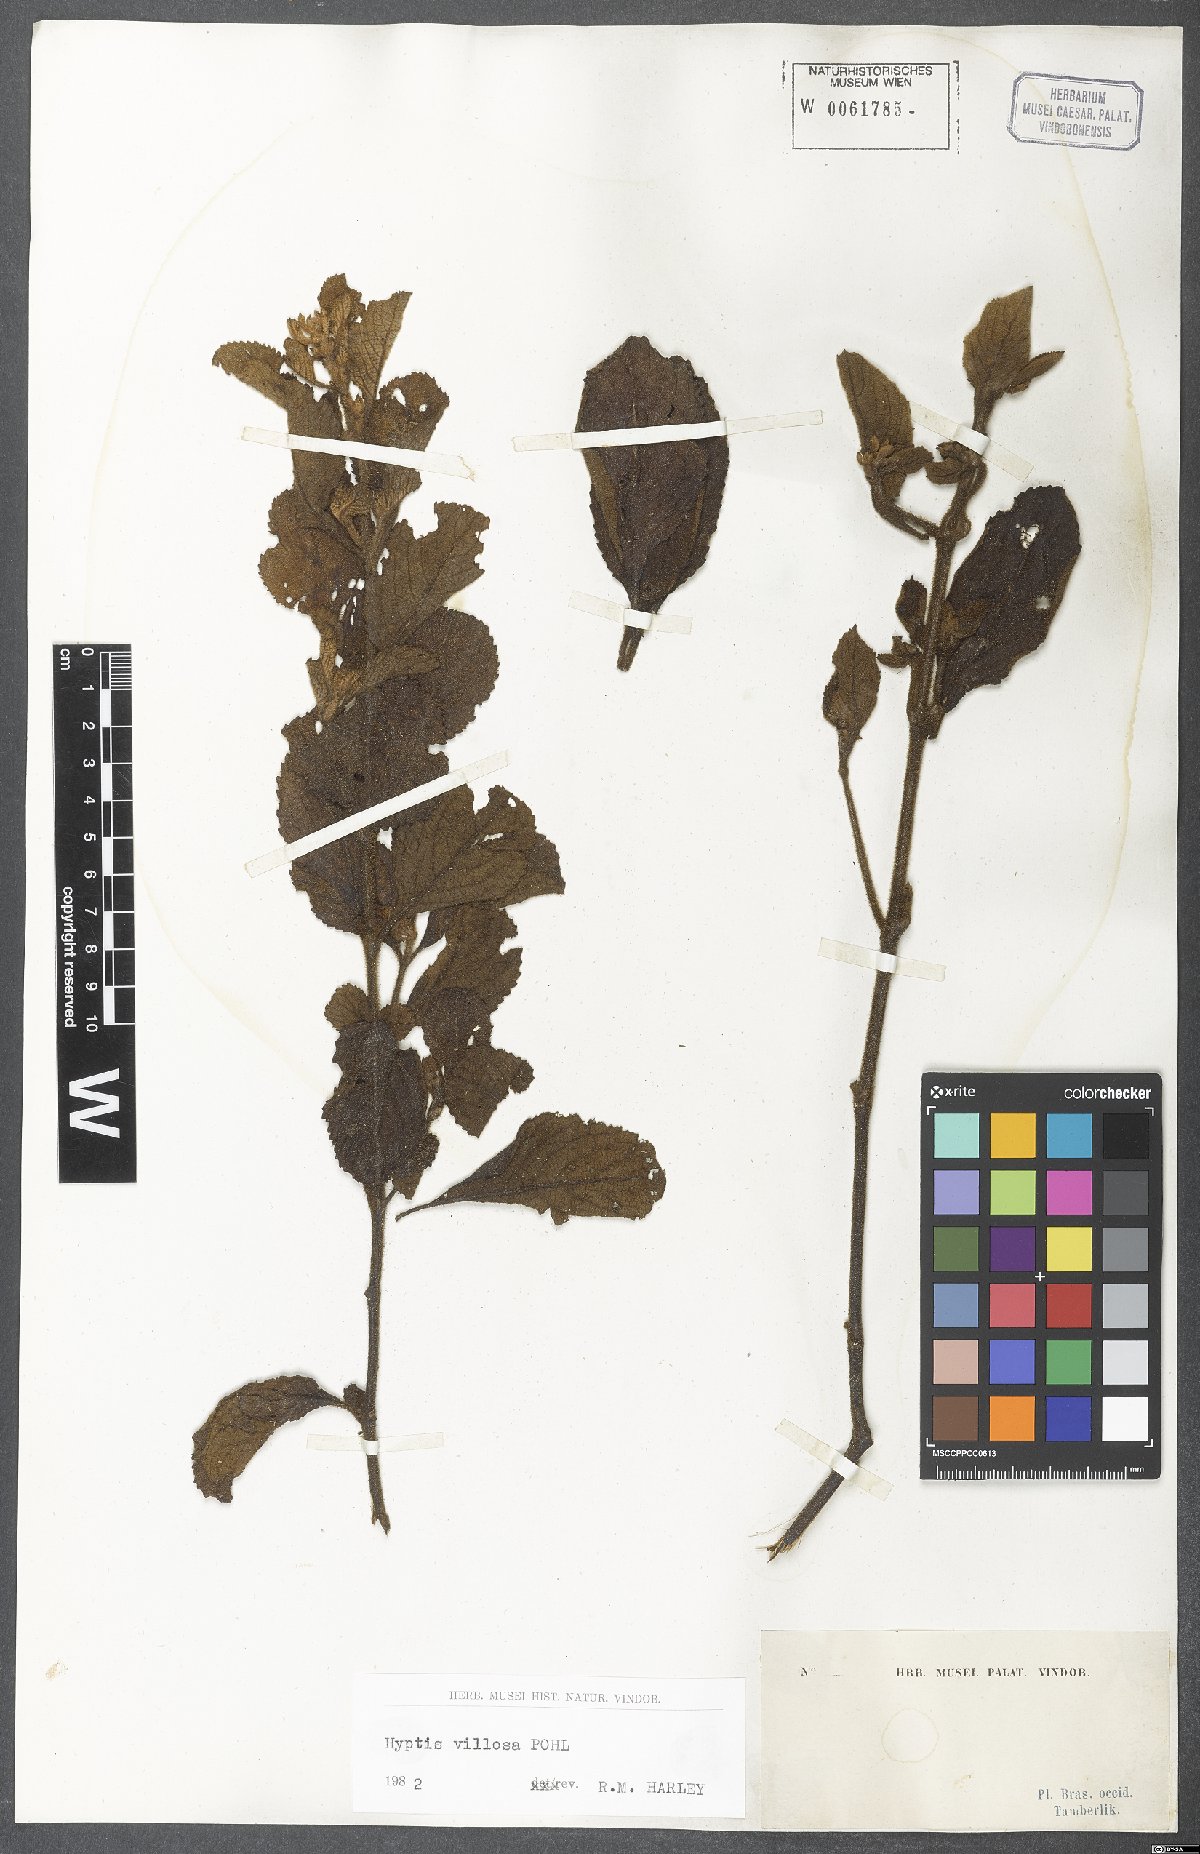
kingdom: Plantae
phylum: Tracheophyta
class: Magnoliopsida
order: Lamiales
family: Lamiaceae
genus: Hyptis
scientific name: Hyptis villosa
